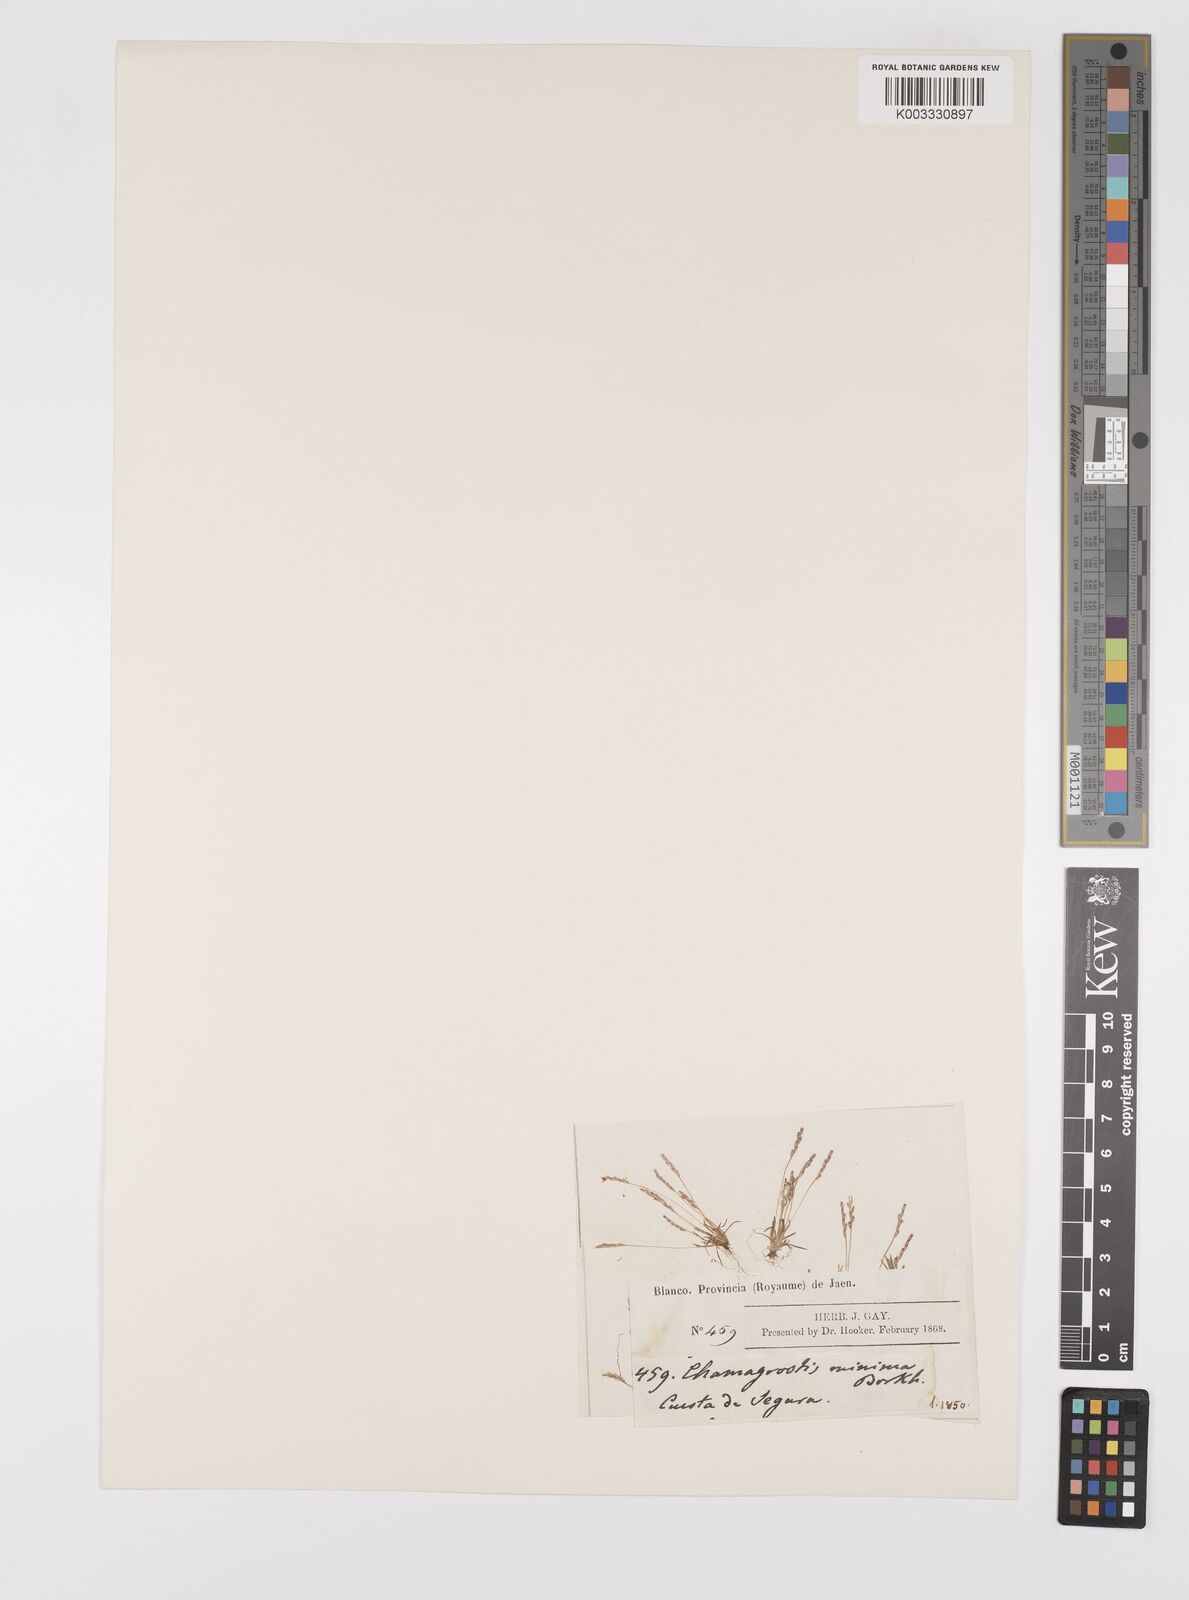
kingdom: Plantae
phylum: Tracheophyta
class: Liliopsida
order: Poales
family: Poaceae
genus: Mibora
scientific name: Mibora minima
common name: Early sand-grass
